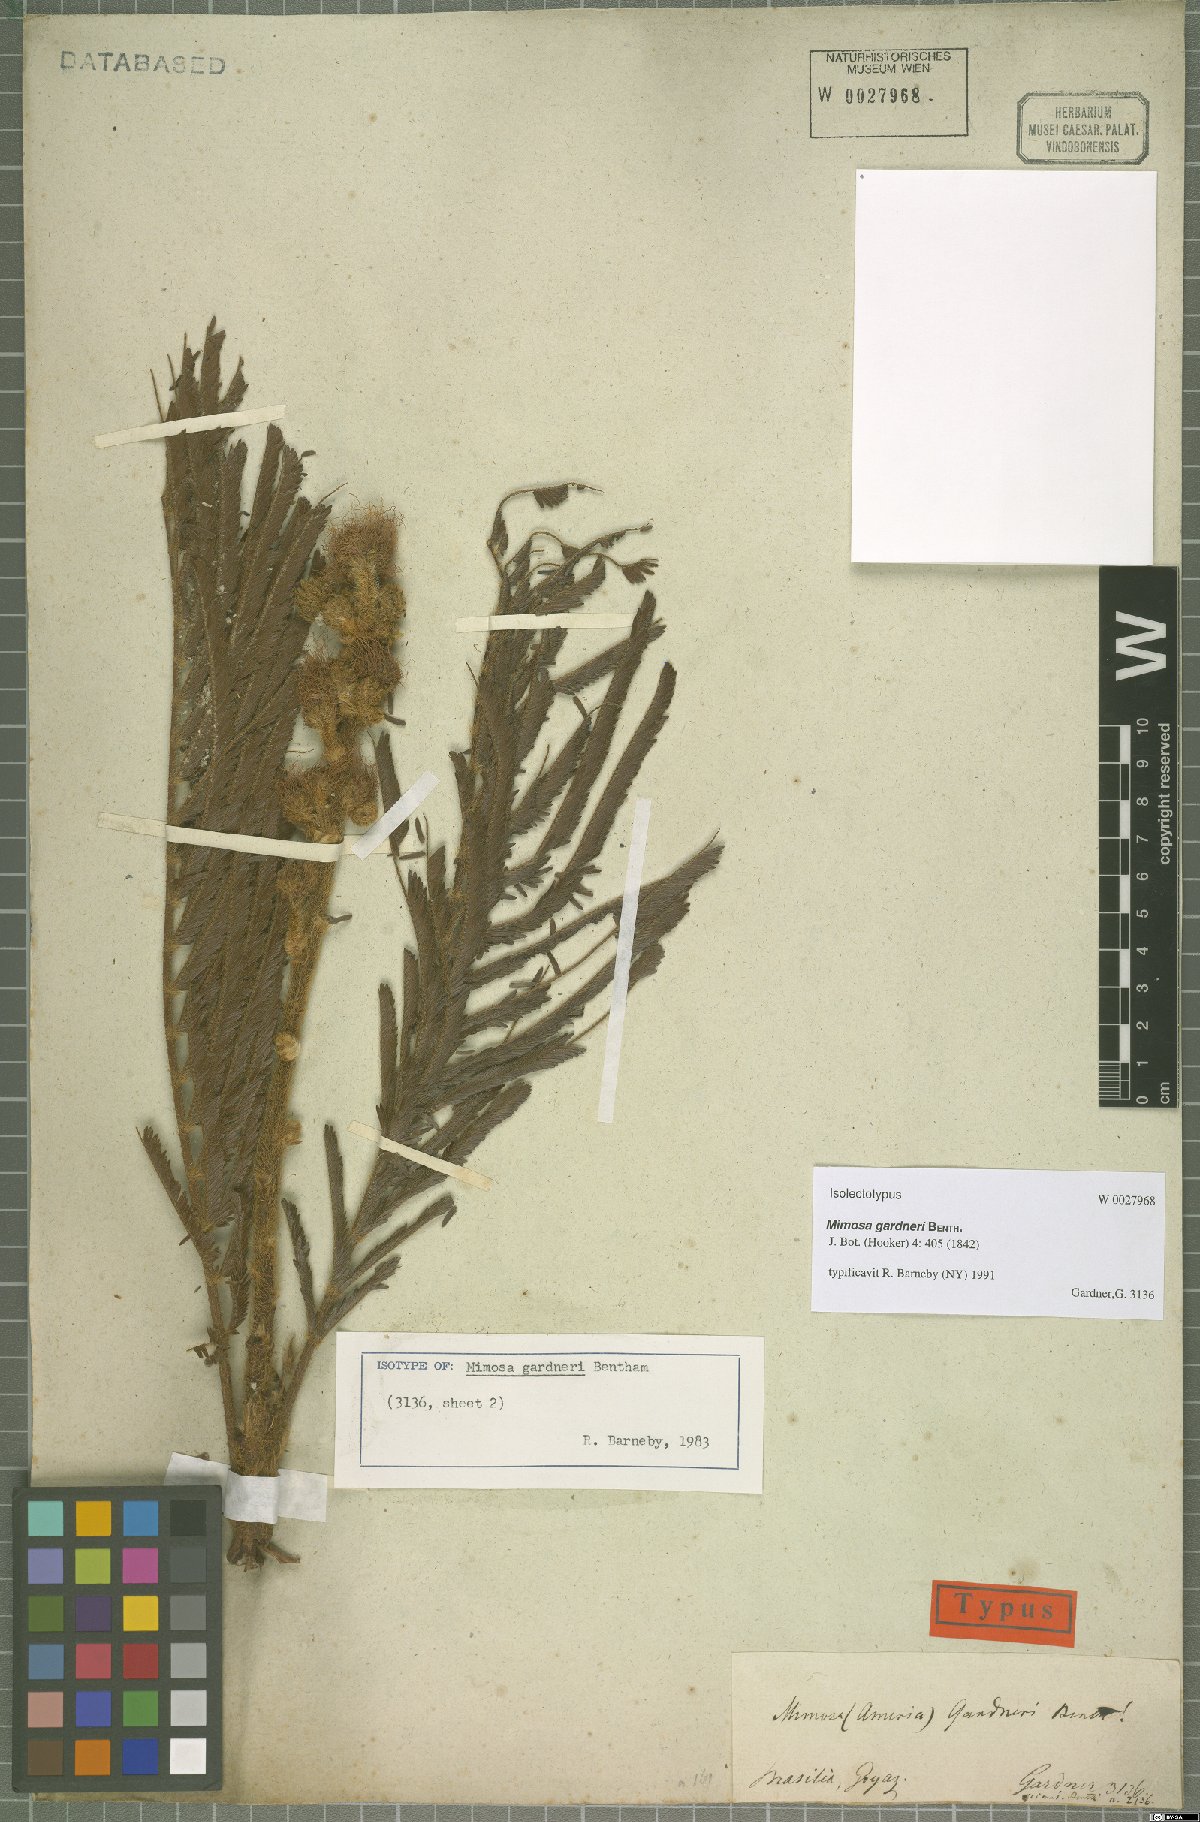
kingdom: Plantae
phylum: Tracheophyta
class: Magnoliopsida
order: Fabales
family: Fabaceae
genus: Mimosa
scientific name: Mimosa gardneri
